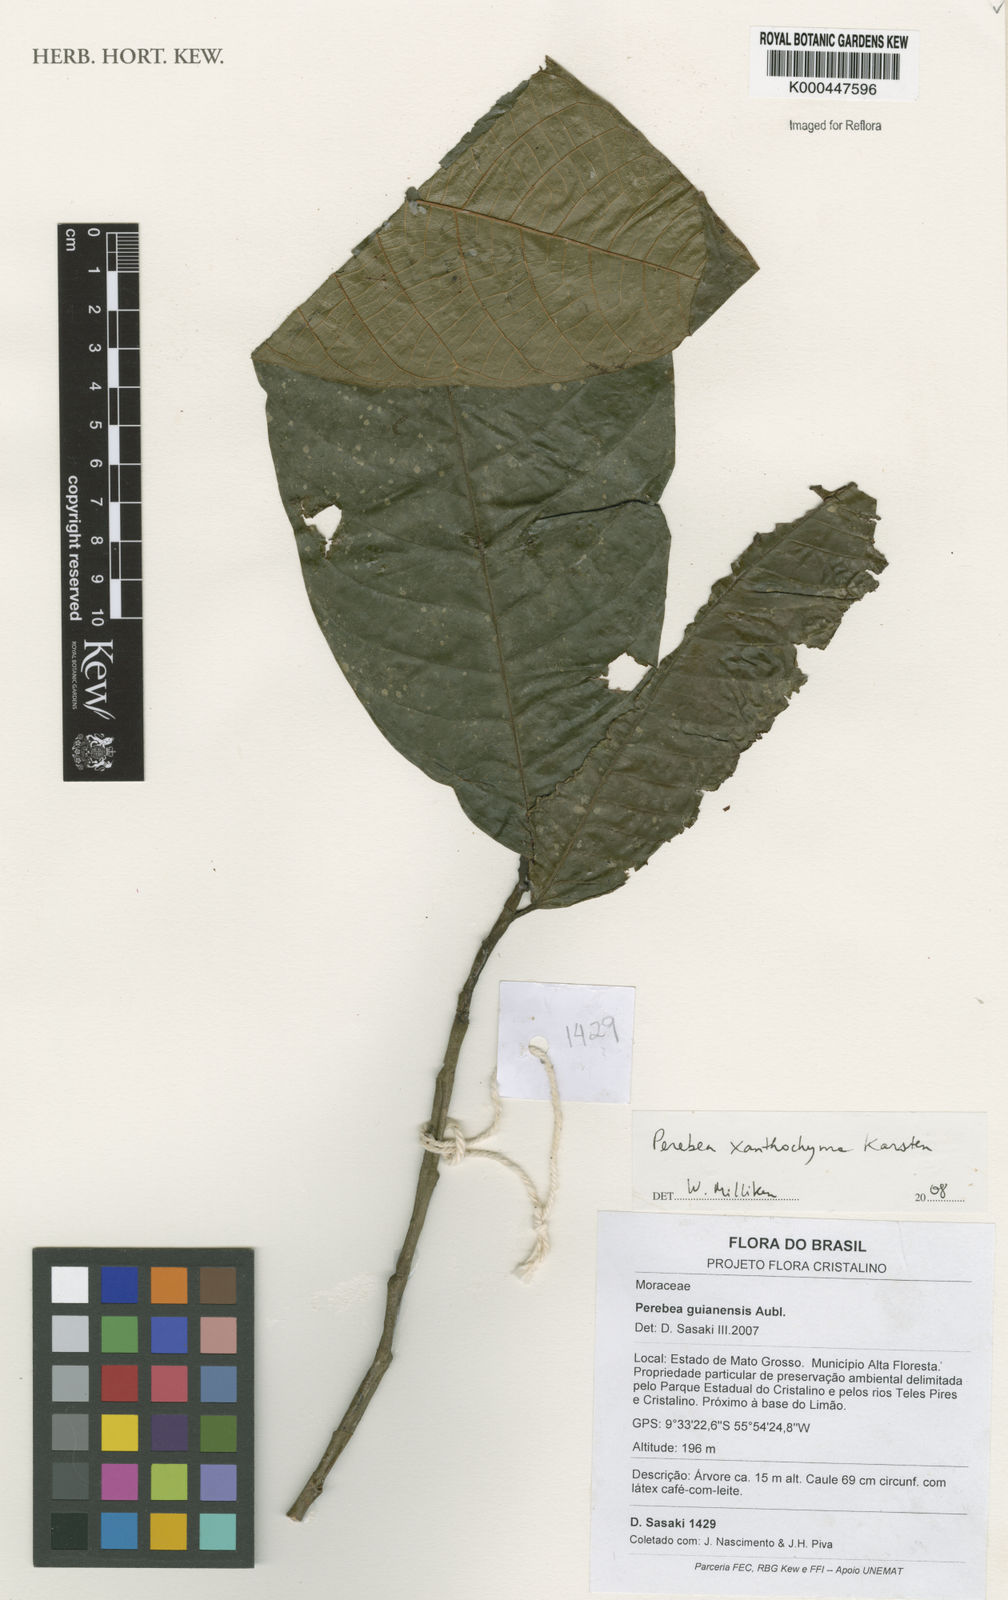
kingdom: Plantae
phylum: Tracheophyta
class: Magnoliopsida
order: Rosales
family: Moraceae
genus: Perebea
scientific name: Perebea xanthochyma
